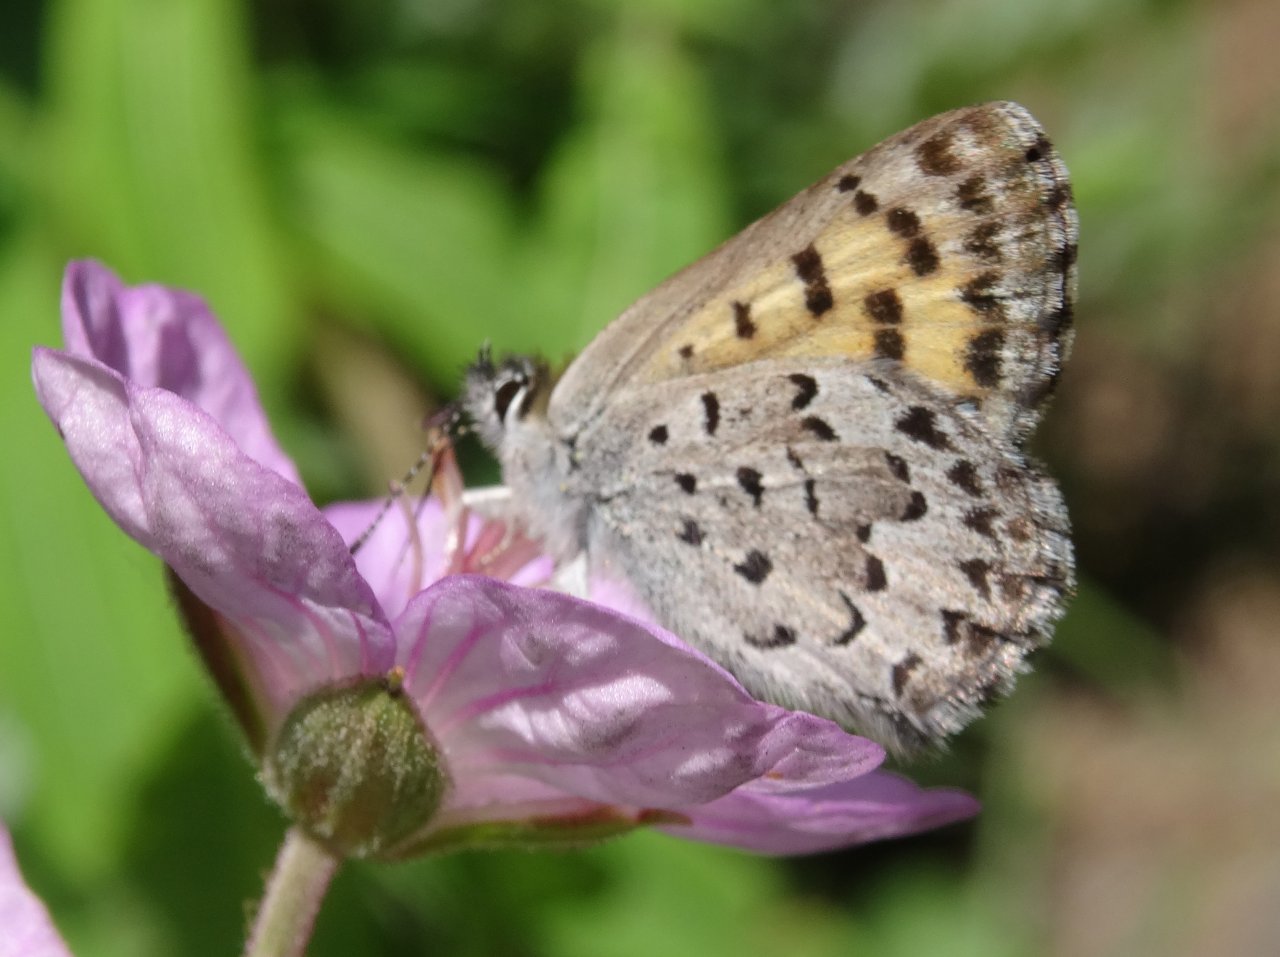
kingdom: Animalia
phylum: Arthropoda
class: Insecta
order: Lepidoptera
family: Lycaenidae
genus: Lycaena
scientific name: Lycaena mariposa
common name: Mariposa Copper
